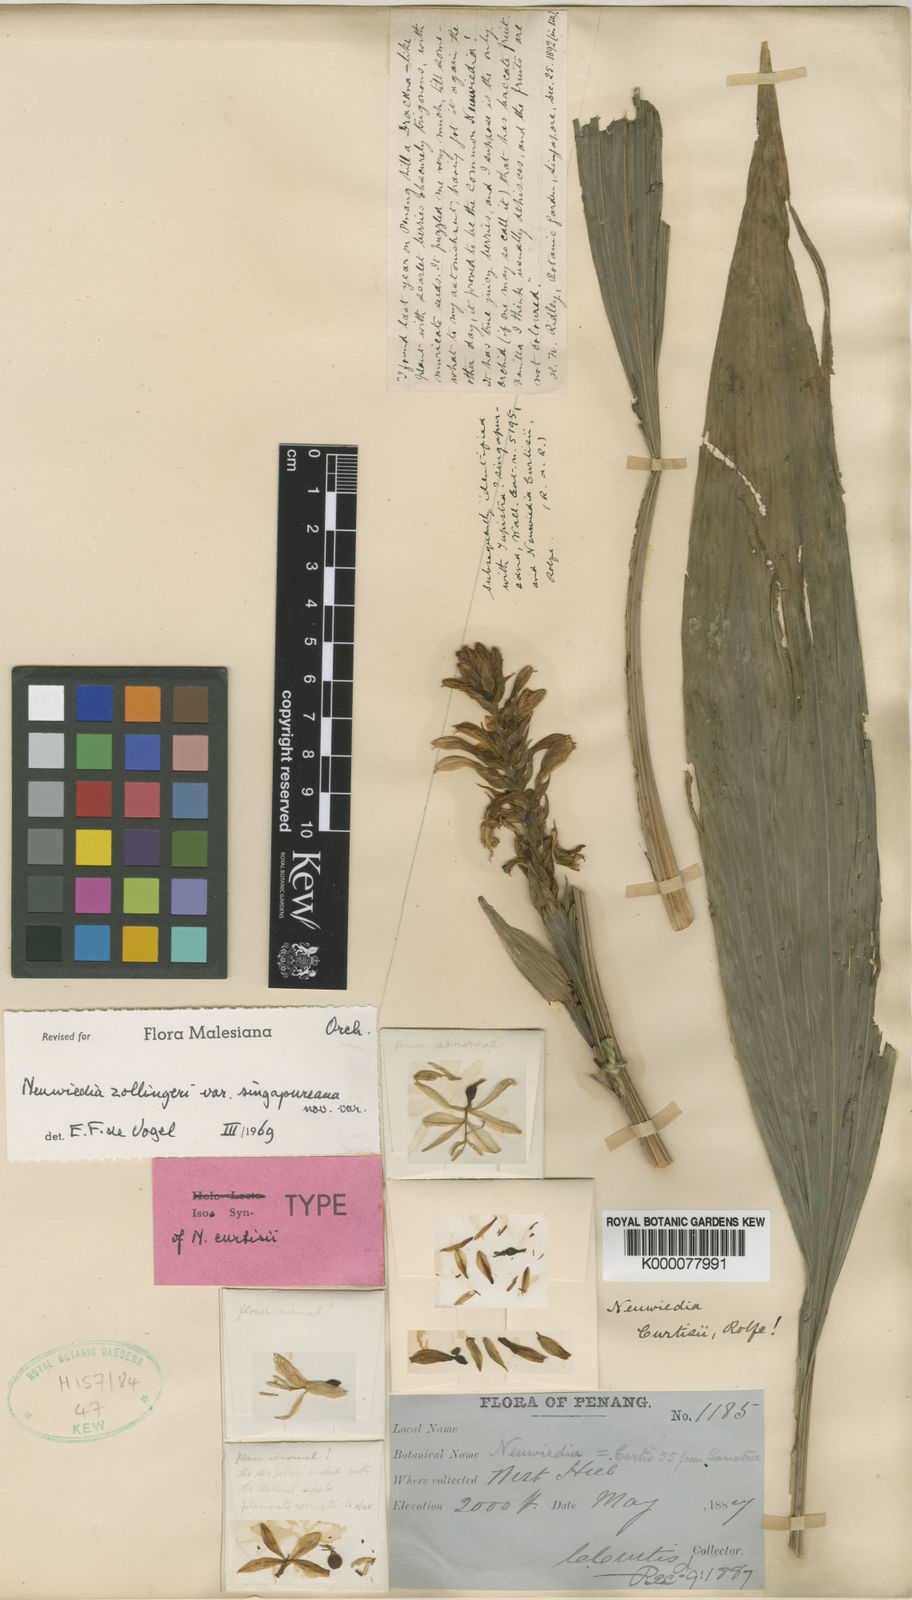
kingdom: Plantae
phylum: Tracheophyta
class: Liliopsida
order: Asparagales
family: Orchidaceae
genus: Neuwiedia
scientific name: Neuwiedia zollingeri
